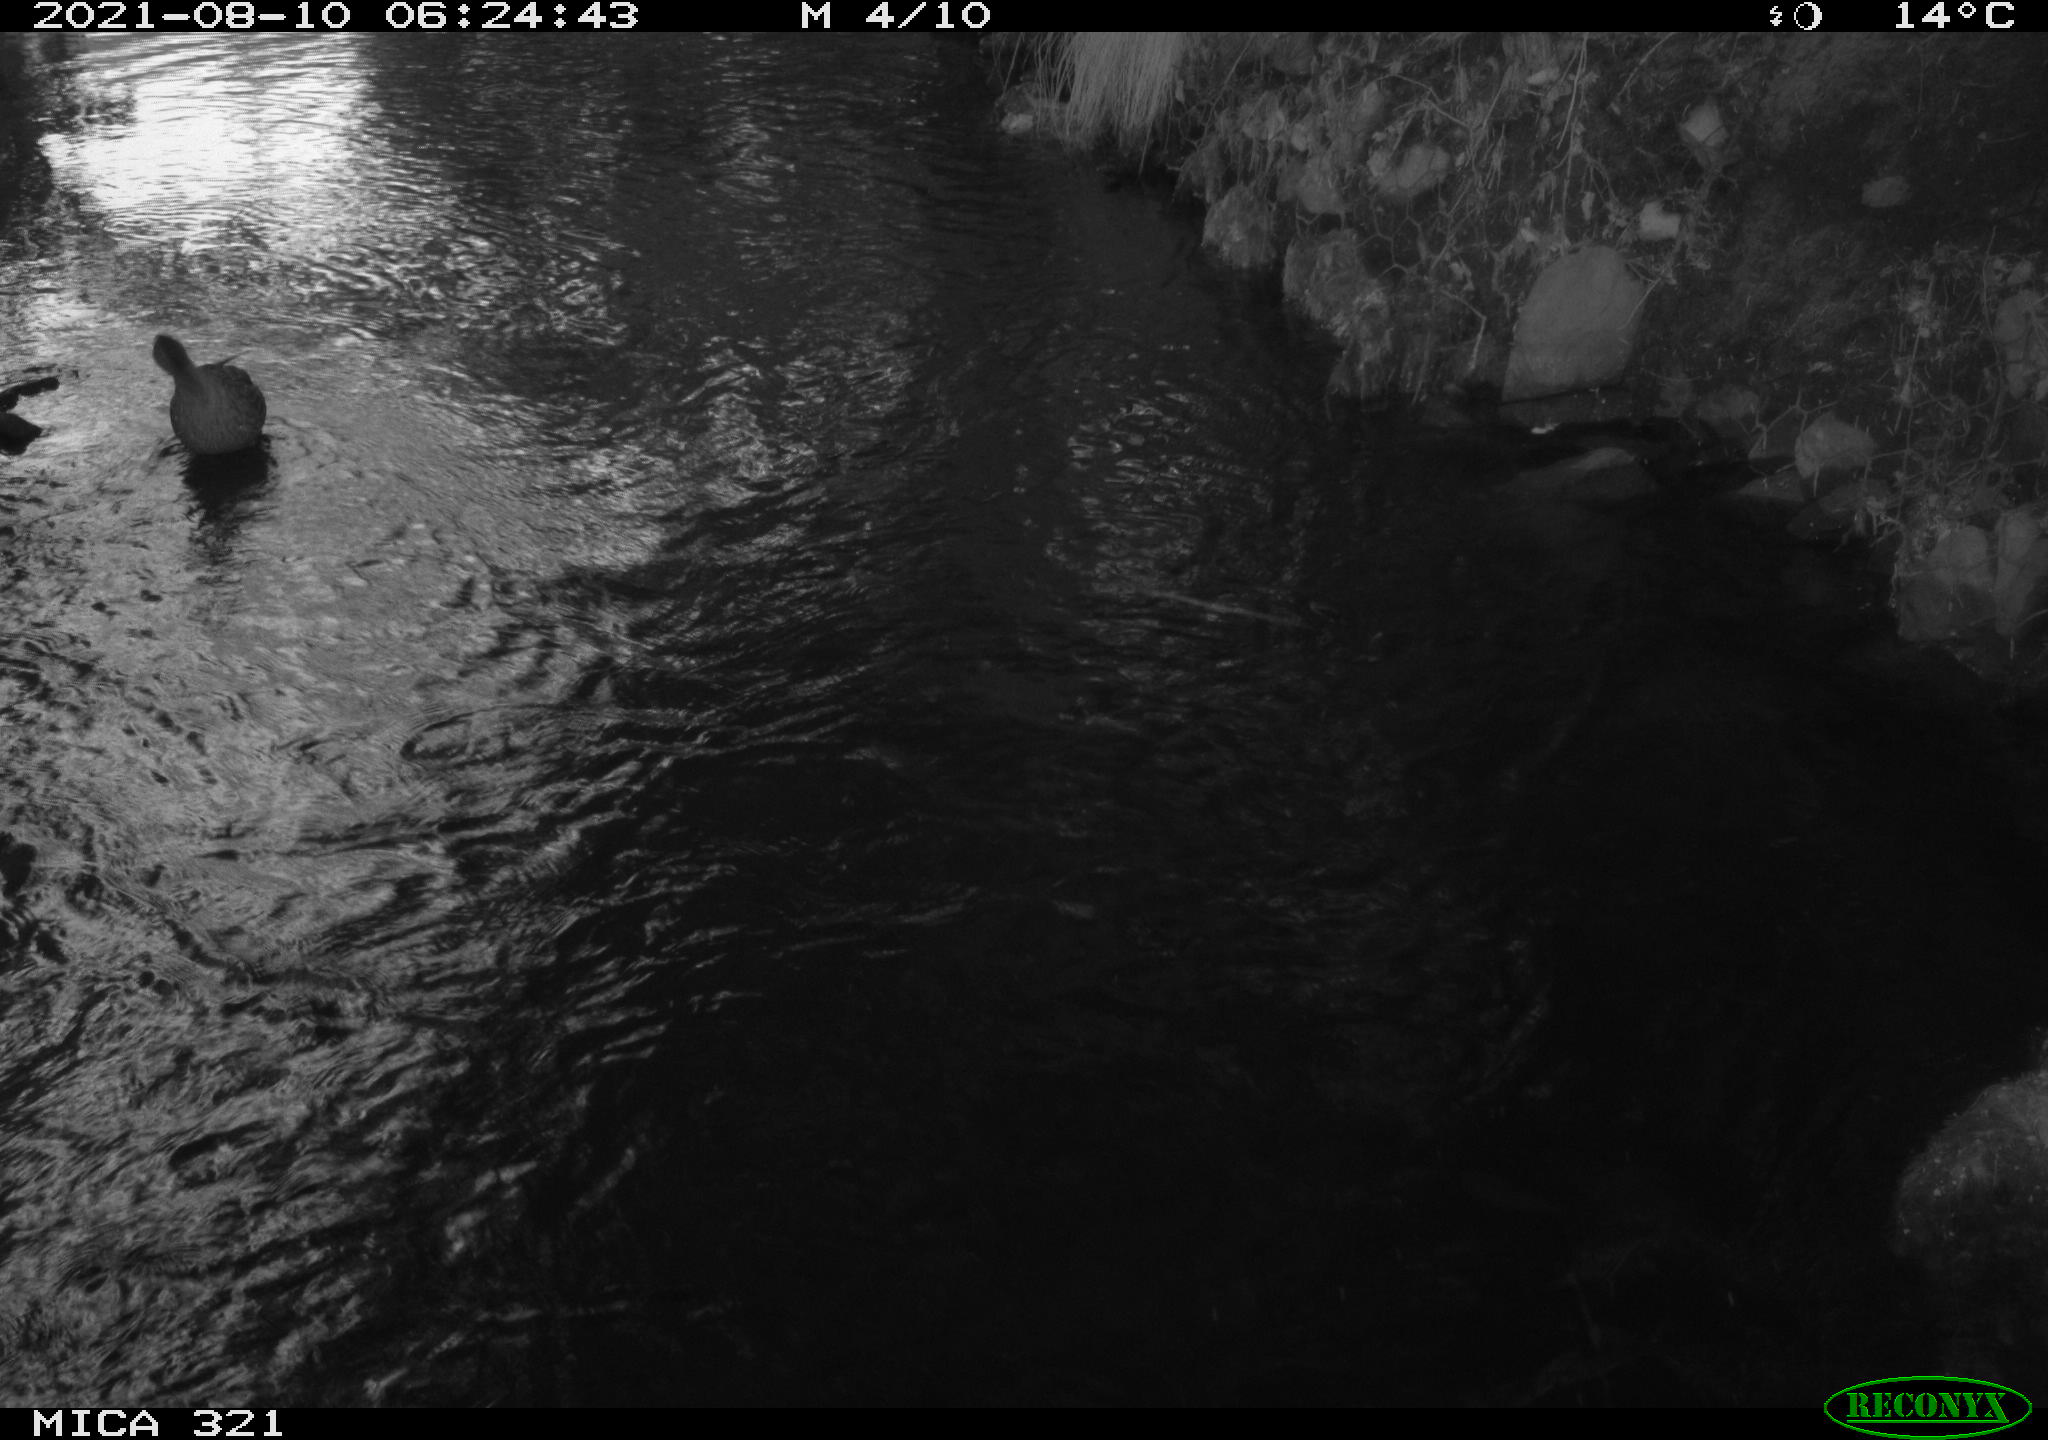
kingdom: Animalia
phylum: Chordata
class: Aves
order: Gruiformes
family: Rallidae
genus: Fulica
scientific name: Fulica atra
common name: Eurasian coot
